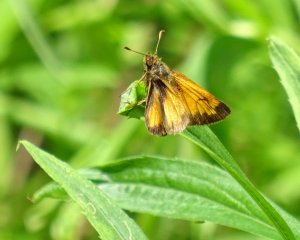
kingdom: Animalia
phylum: Arthropoda
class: Insecta
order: Lepidoptera
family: Hesperiidae
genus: Lon
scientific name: Lon hobomok
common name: Hobomok Skipper
